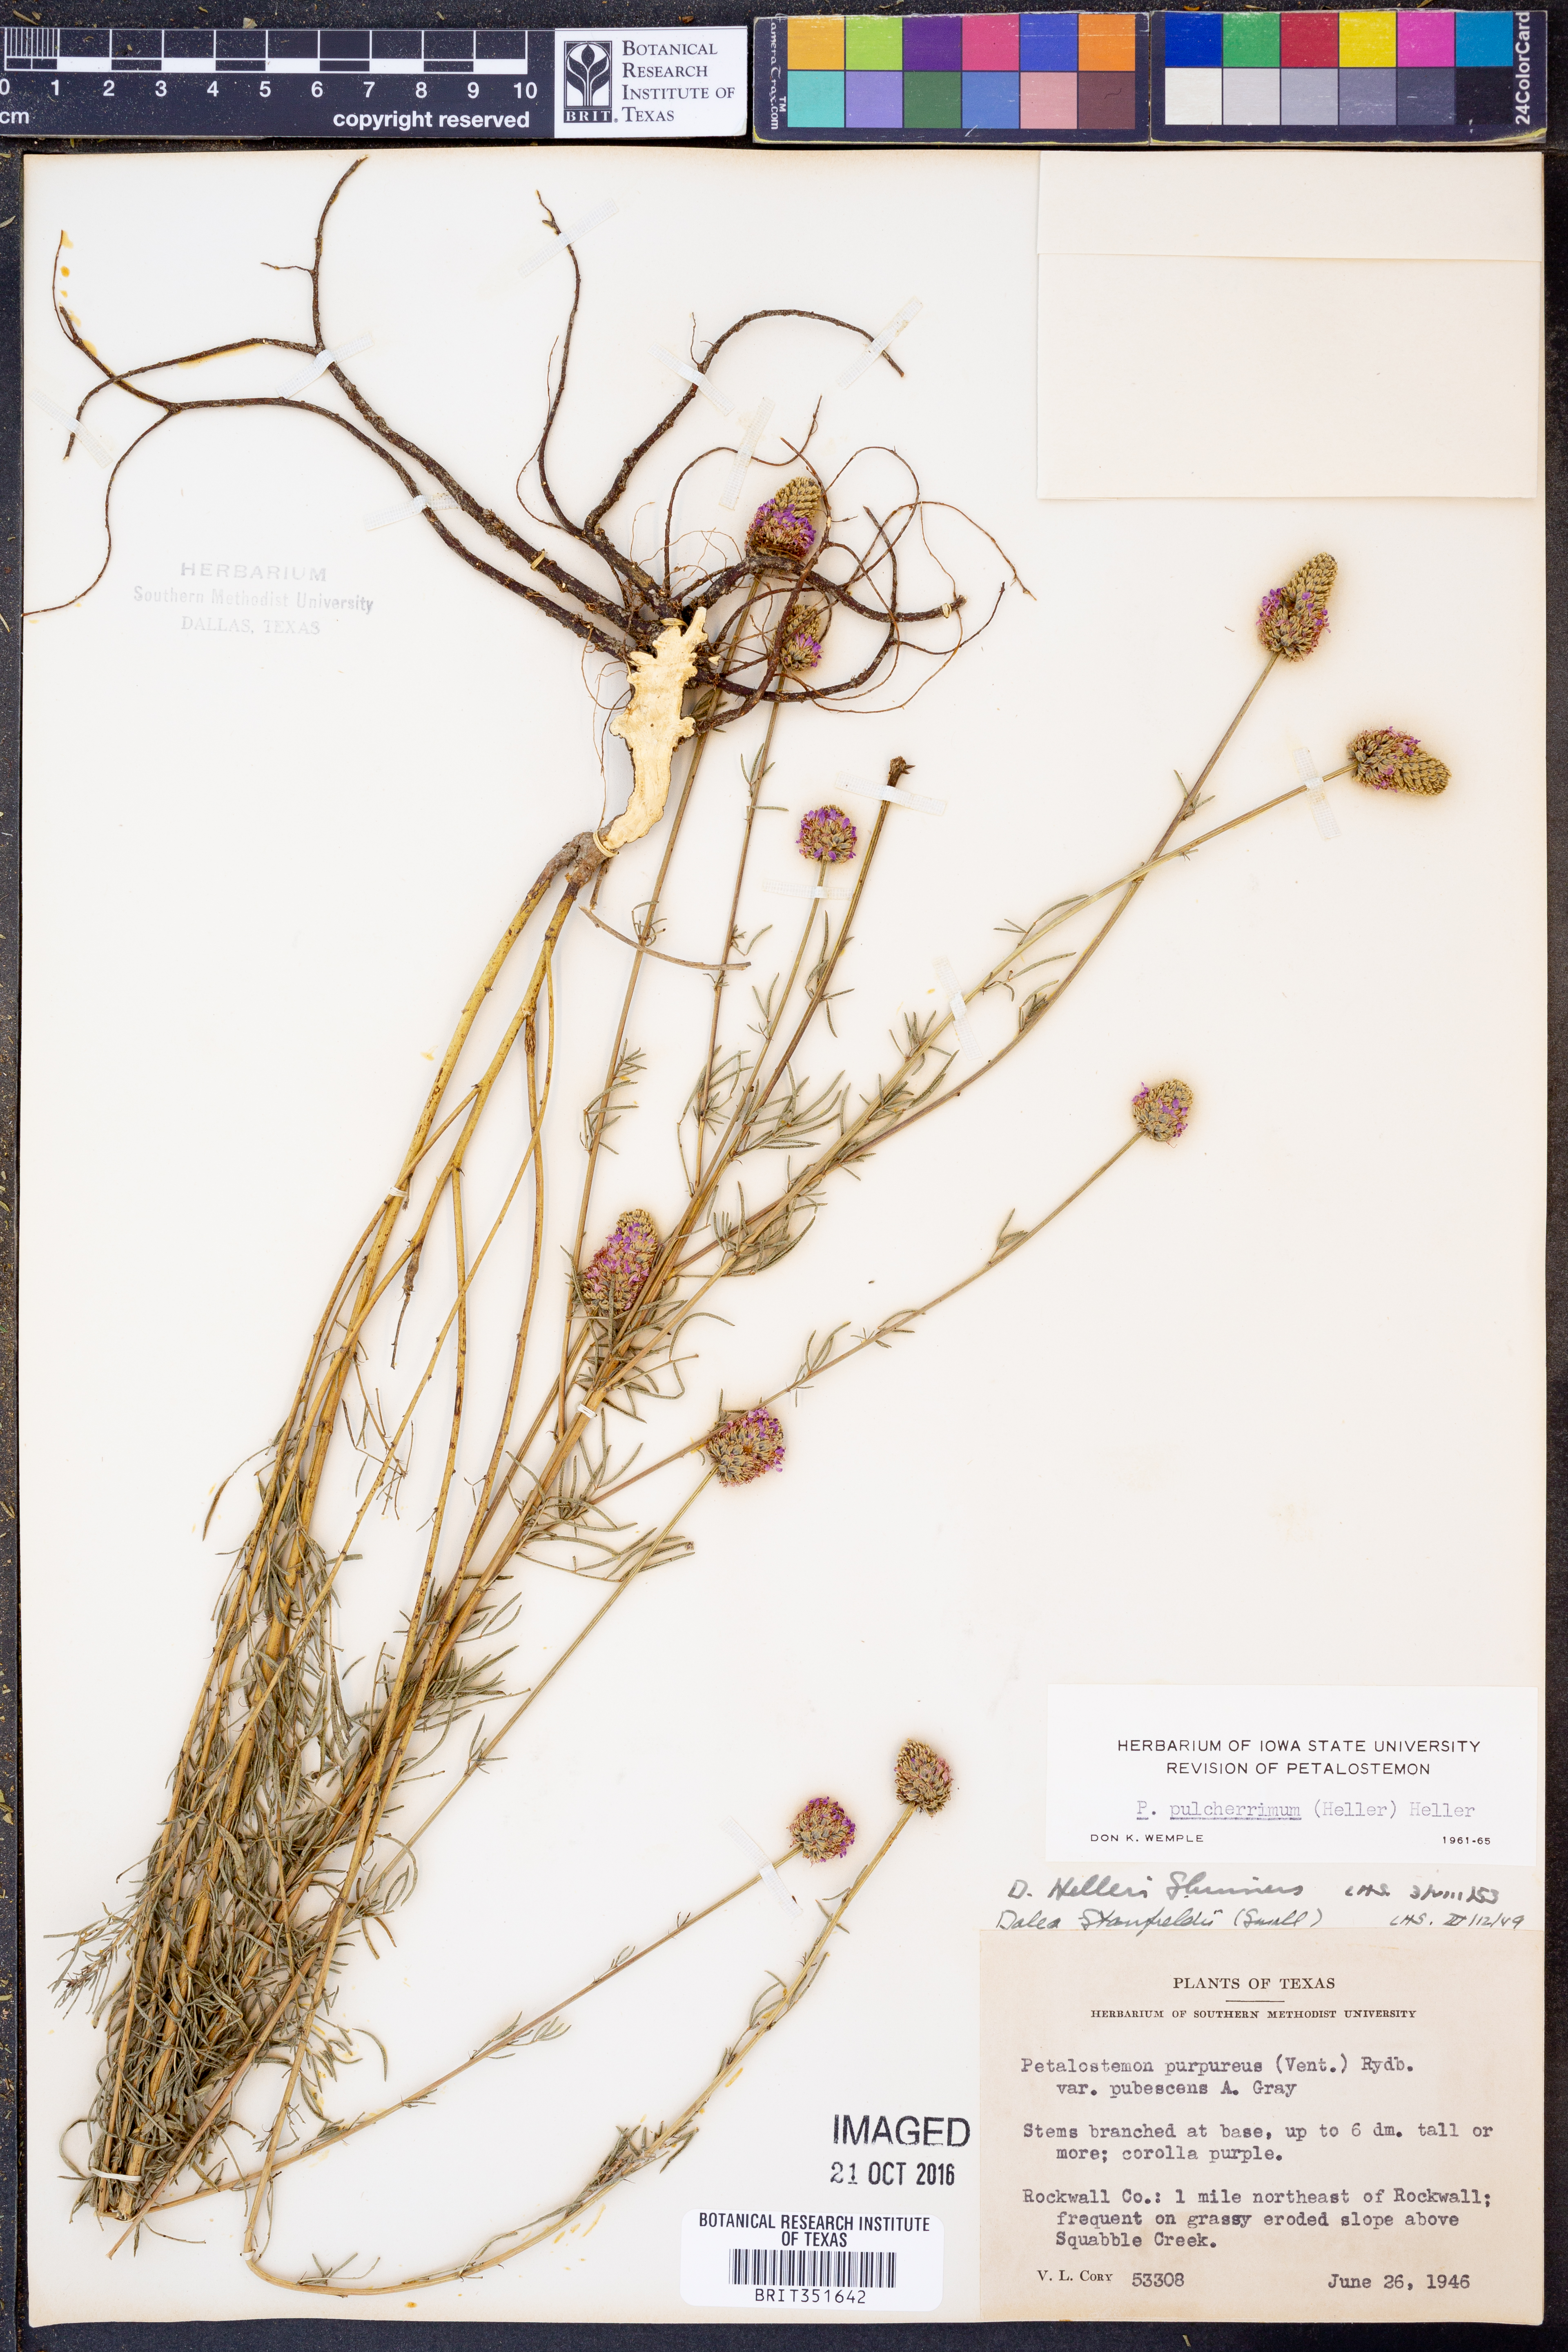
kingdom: Plantae
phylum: Tracheophyta
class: Magnoliopsida
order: Fabales
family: Fabaceae
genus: Dalea
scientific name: Dalea
